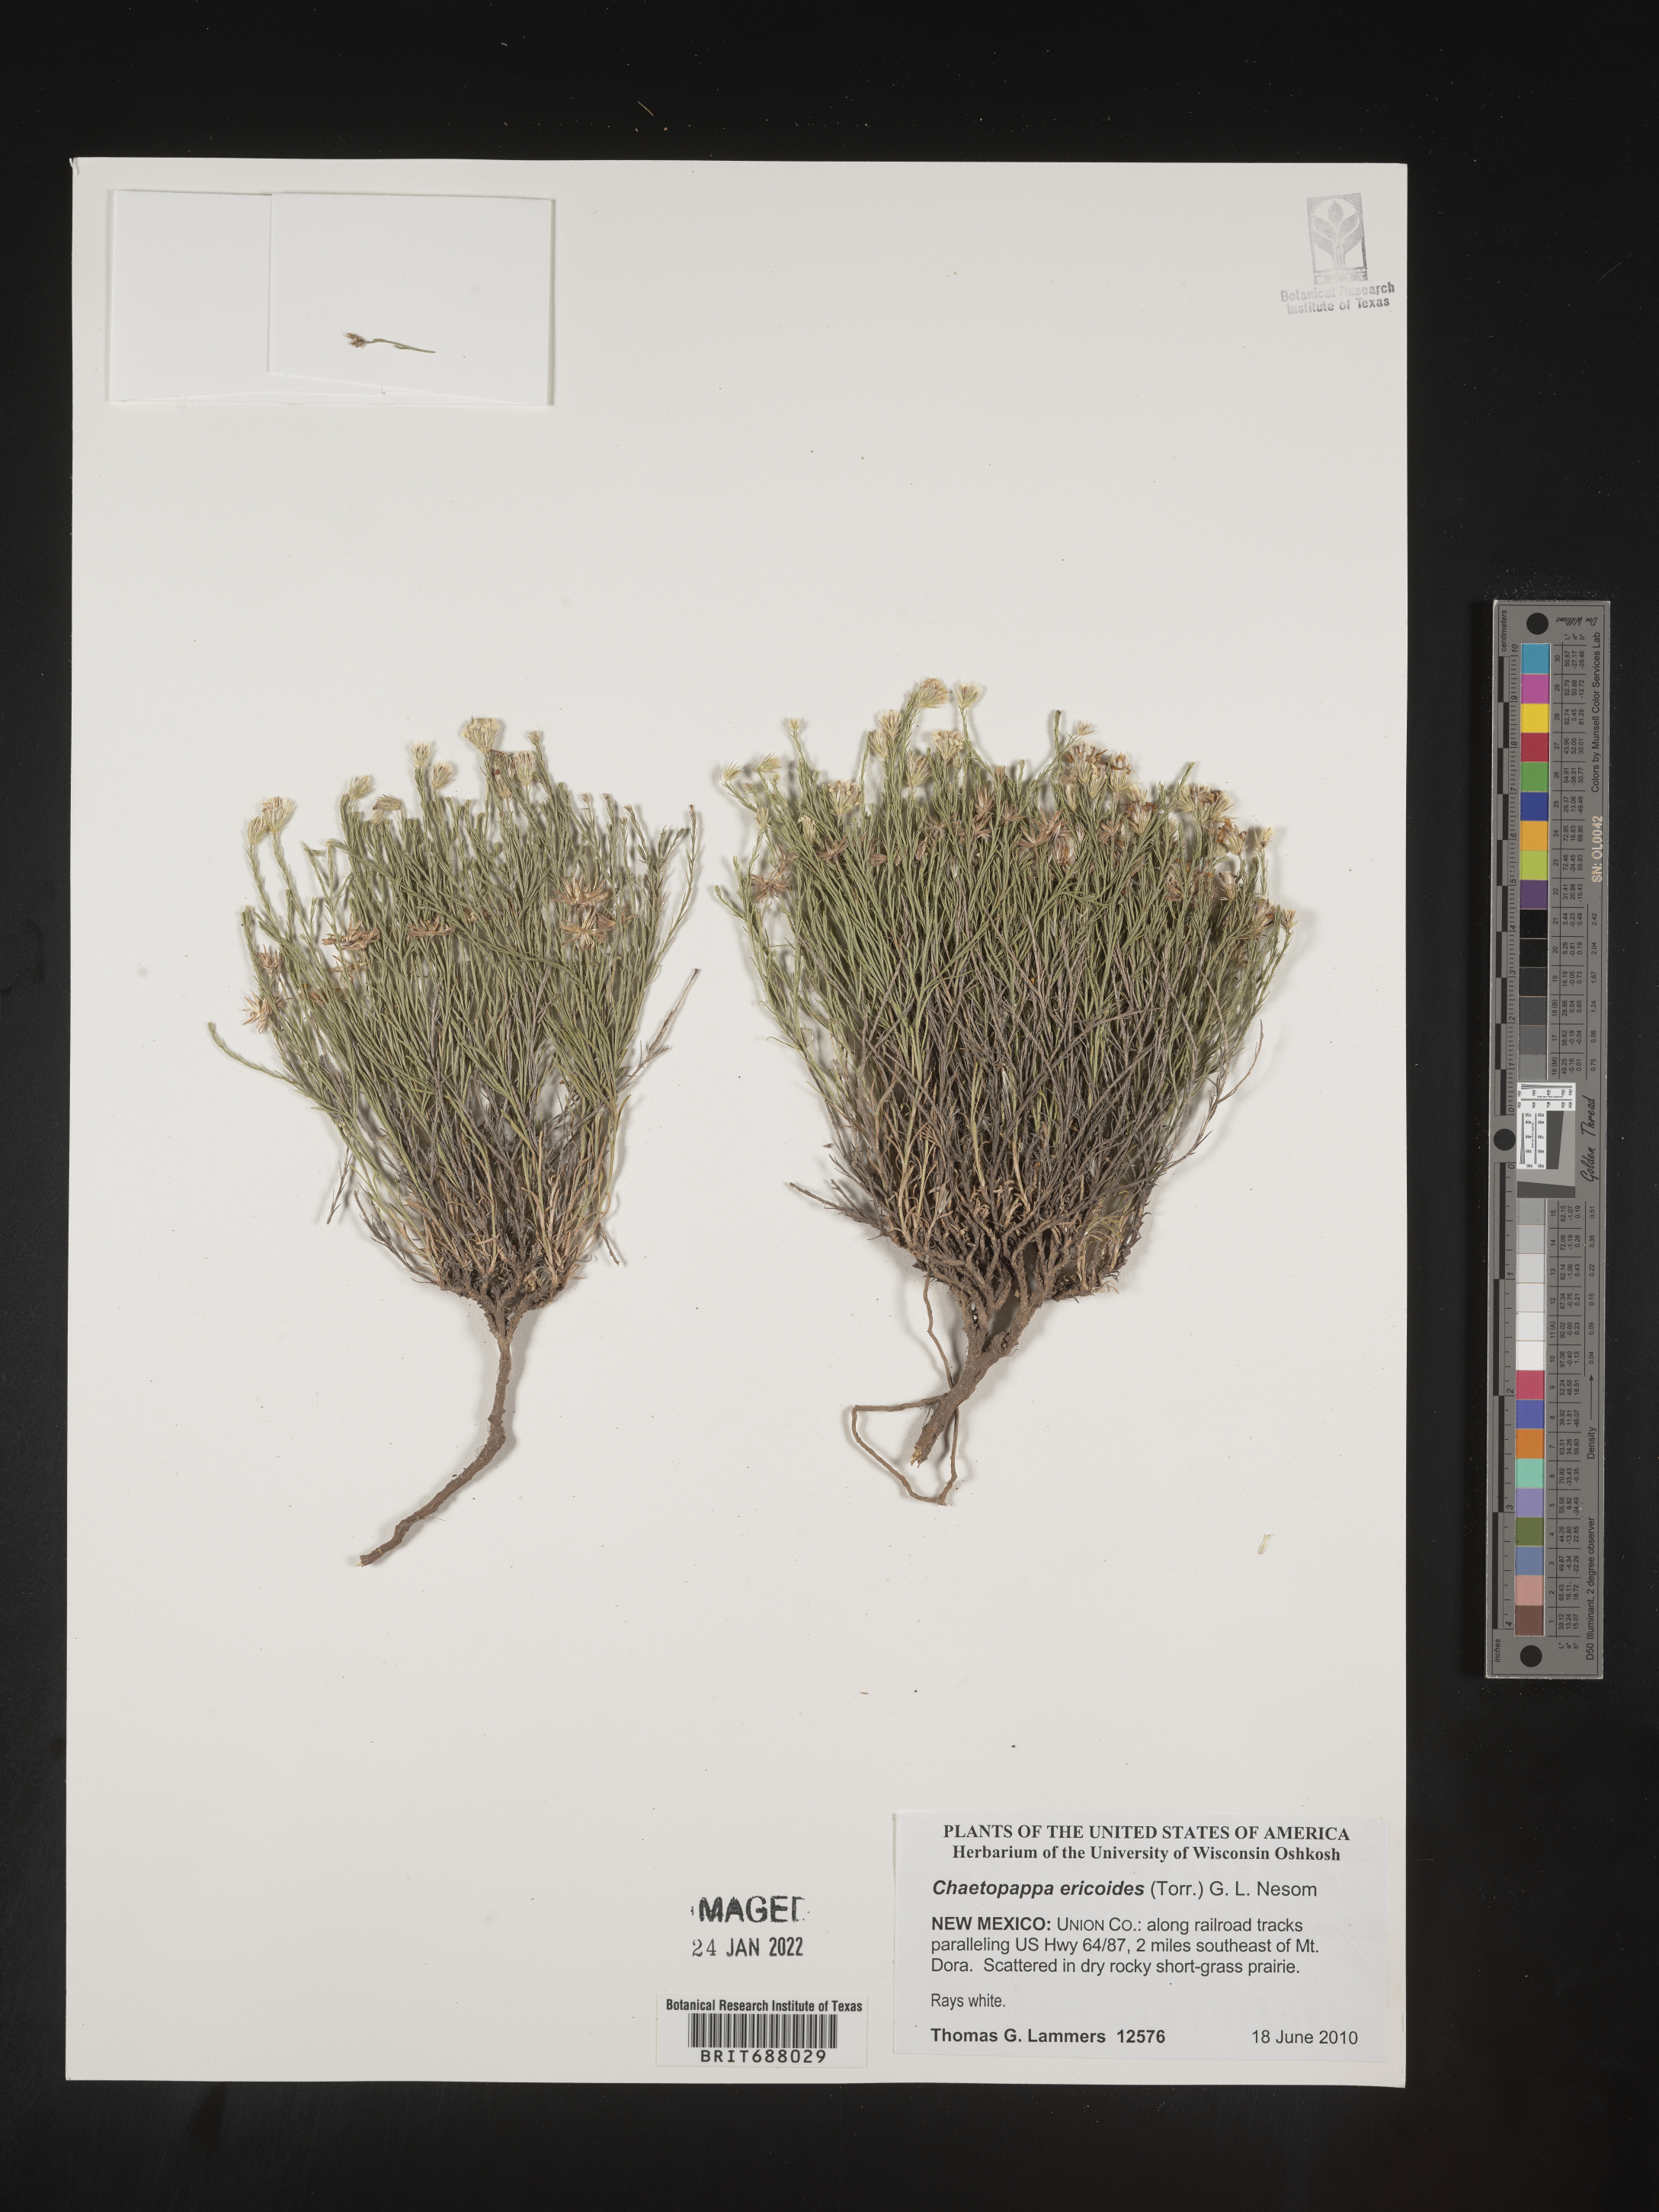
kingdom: Plantae
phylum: Tracheophyta
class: Magnoliopsida
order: Asterales
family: Asteraceae
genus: Chaetopappa
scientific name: Chaetopappa ericoides
